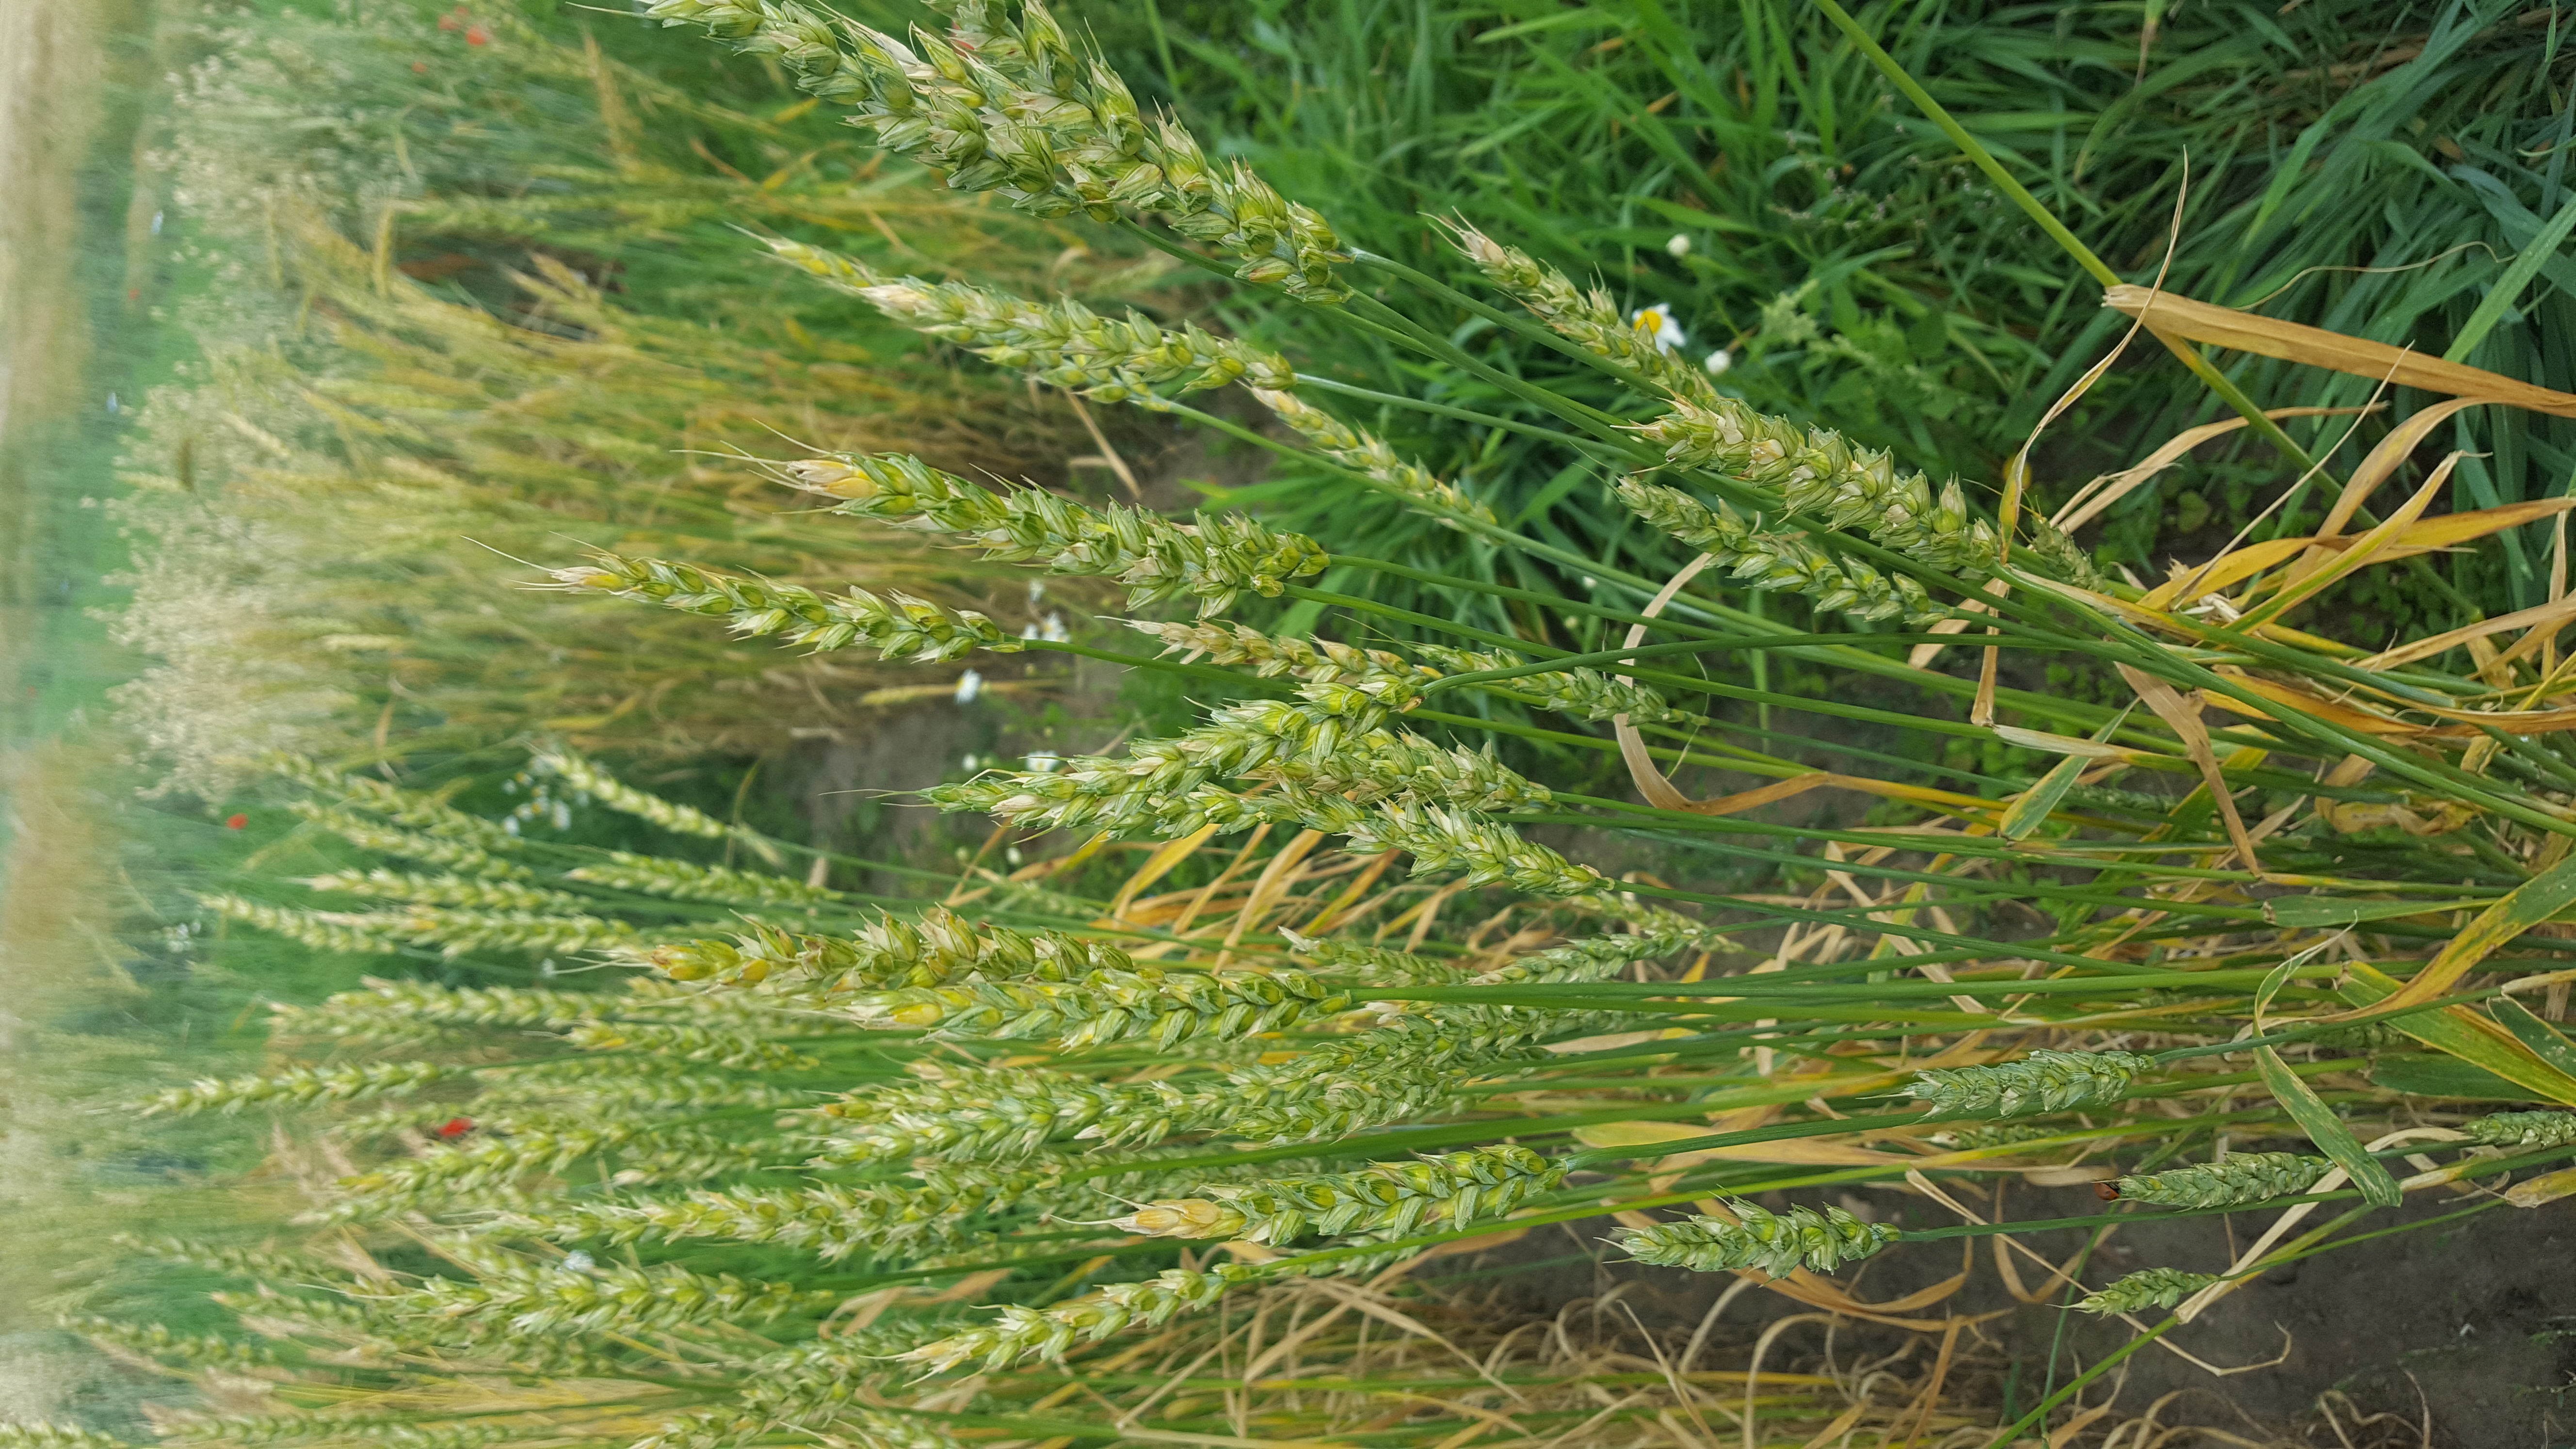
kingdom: Plantae
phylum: Tracheophyta
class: Liliopsida
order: Poales
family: Poaceae
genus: Triticum
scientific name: Triticum aestivum
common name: Common wheat
